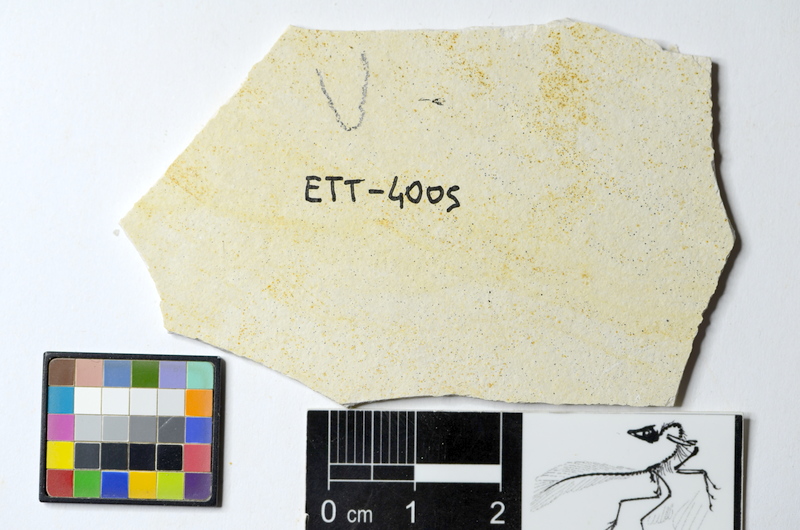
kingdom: Animalia
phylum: Chordata
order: Salmoniformes
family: Orthogonikleithridae
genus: Orthogonikleithrus
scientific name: Orthogonikleithrus hoelli
